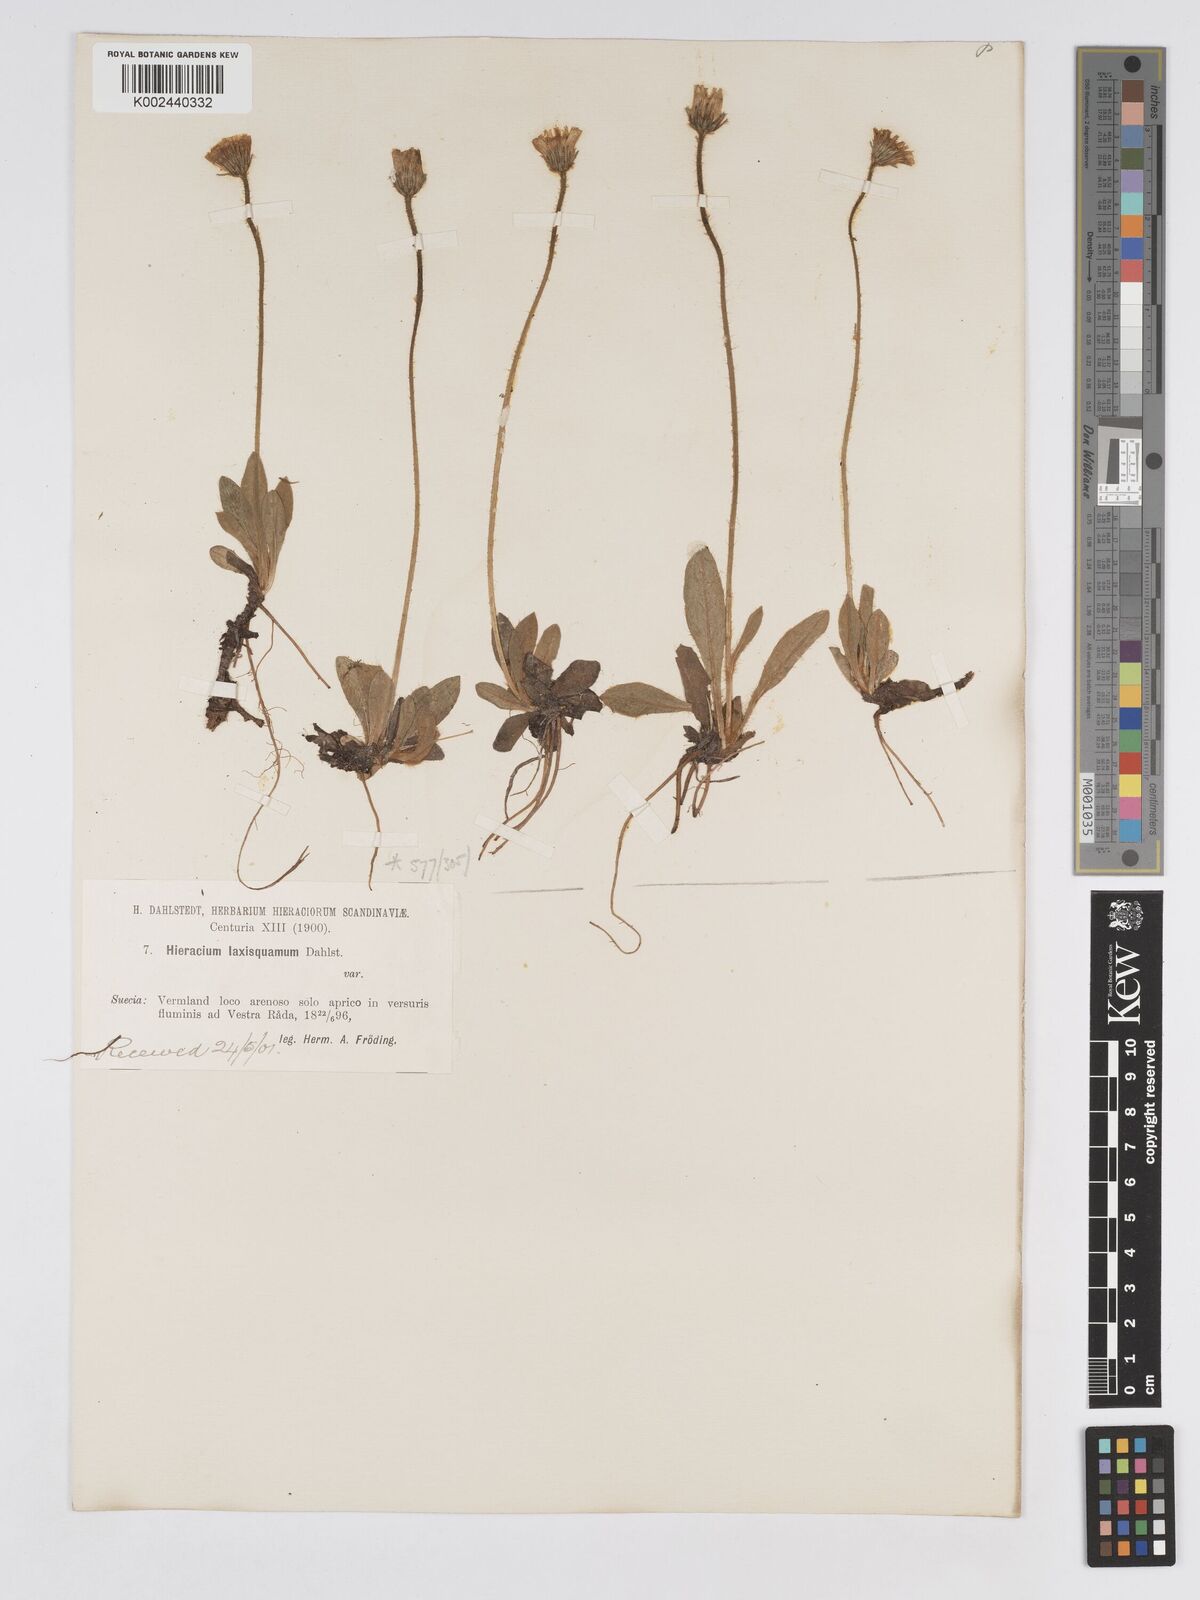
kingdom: Plantae
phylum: Tracheophyta
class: Magnoliopsida
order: Asterales
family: Asteraceae
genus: Pilosella
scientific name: Pilosella officinarum
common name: Mouse-ear hawkweed
